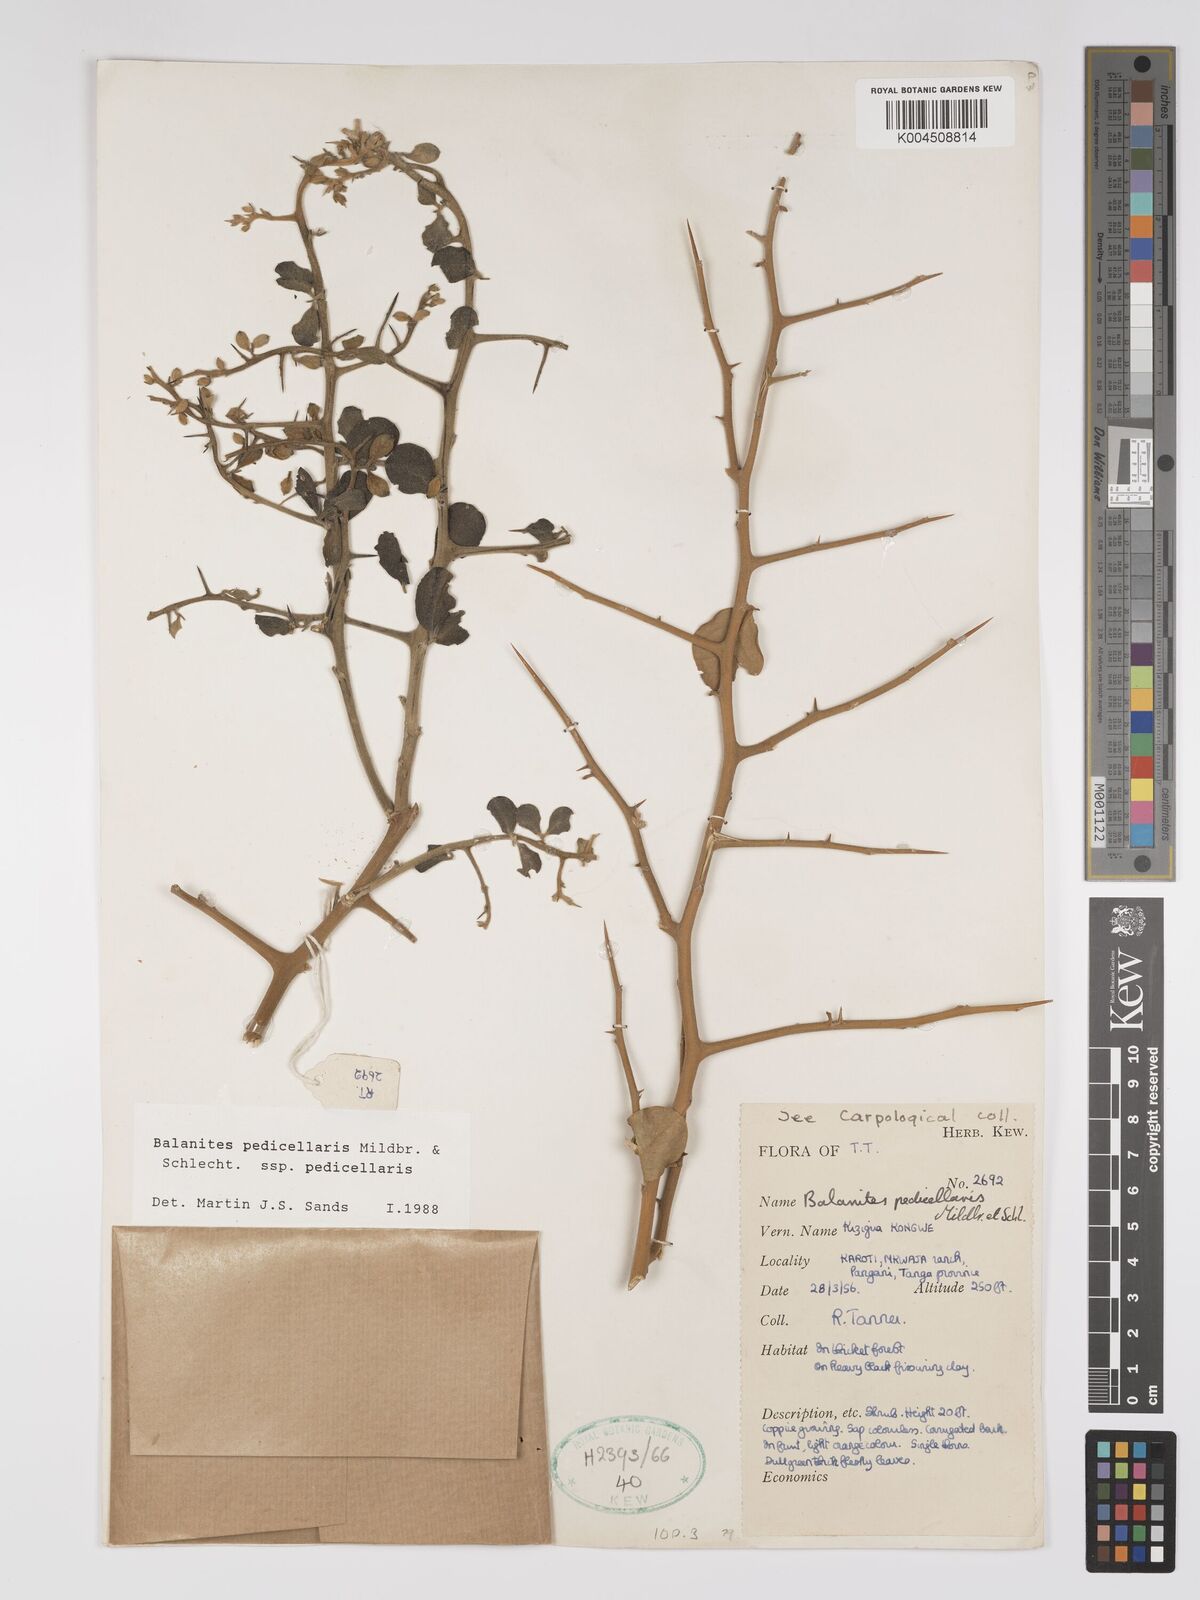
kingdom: Plantae
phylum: Tracheophyta
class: Magnoliopsida
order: Zygophyllales
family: Zygophyllaceae
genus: Balanites
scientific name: Balanites pedicellaris
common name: Small green-thorn
